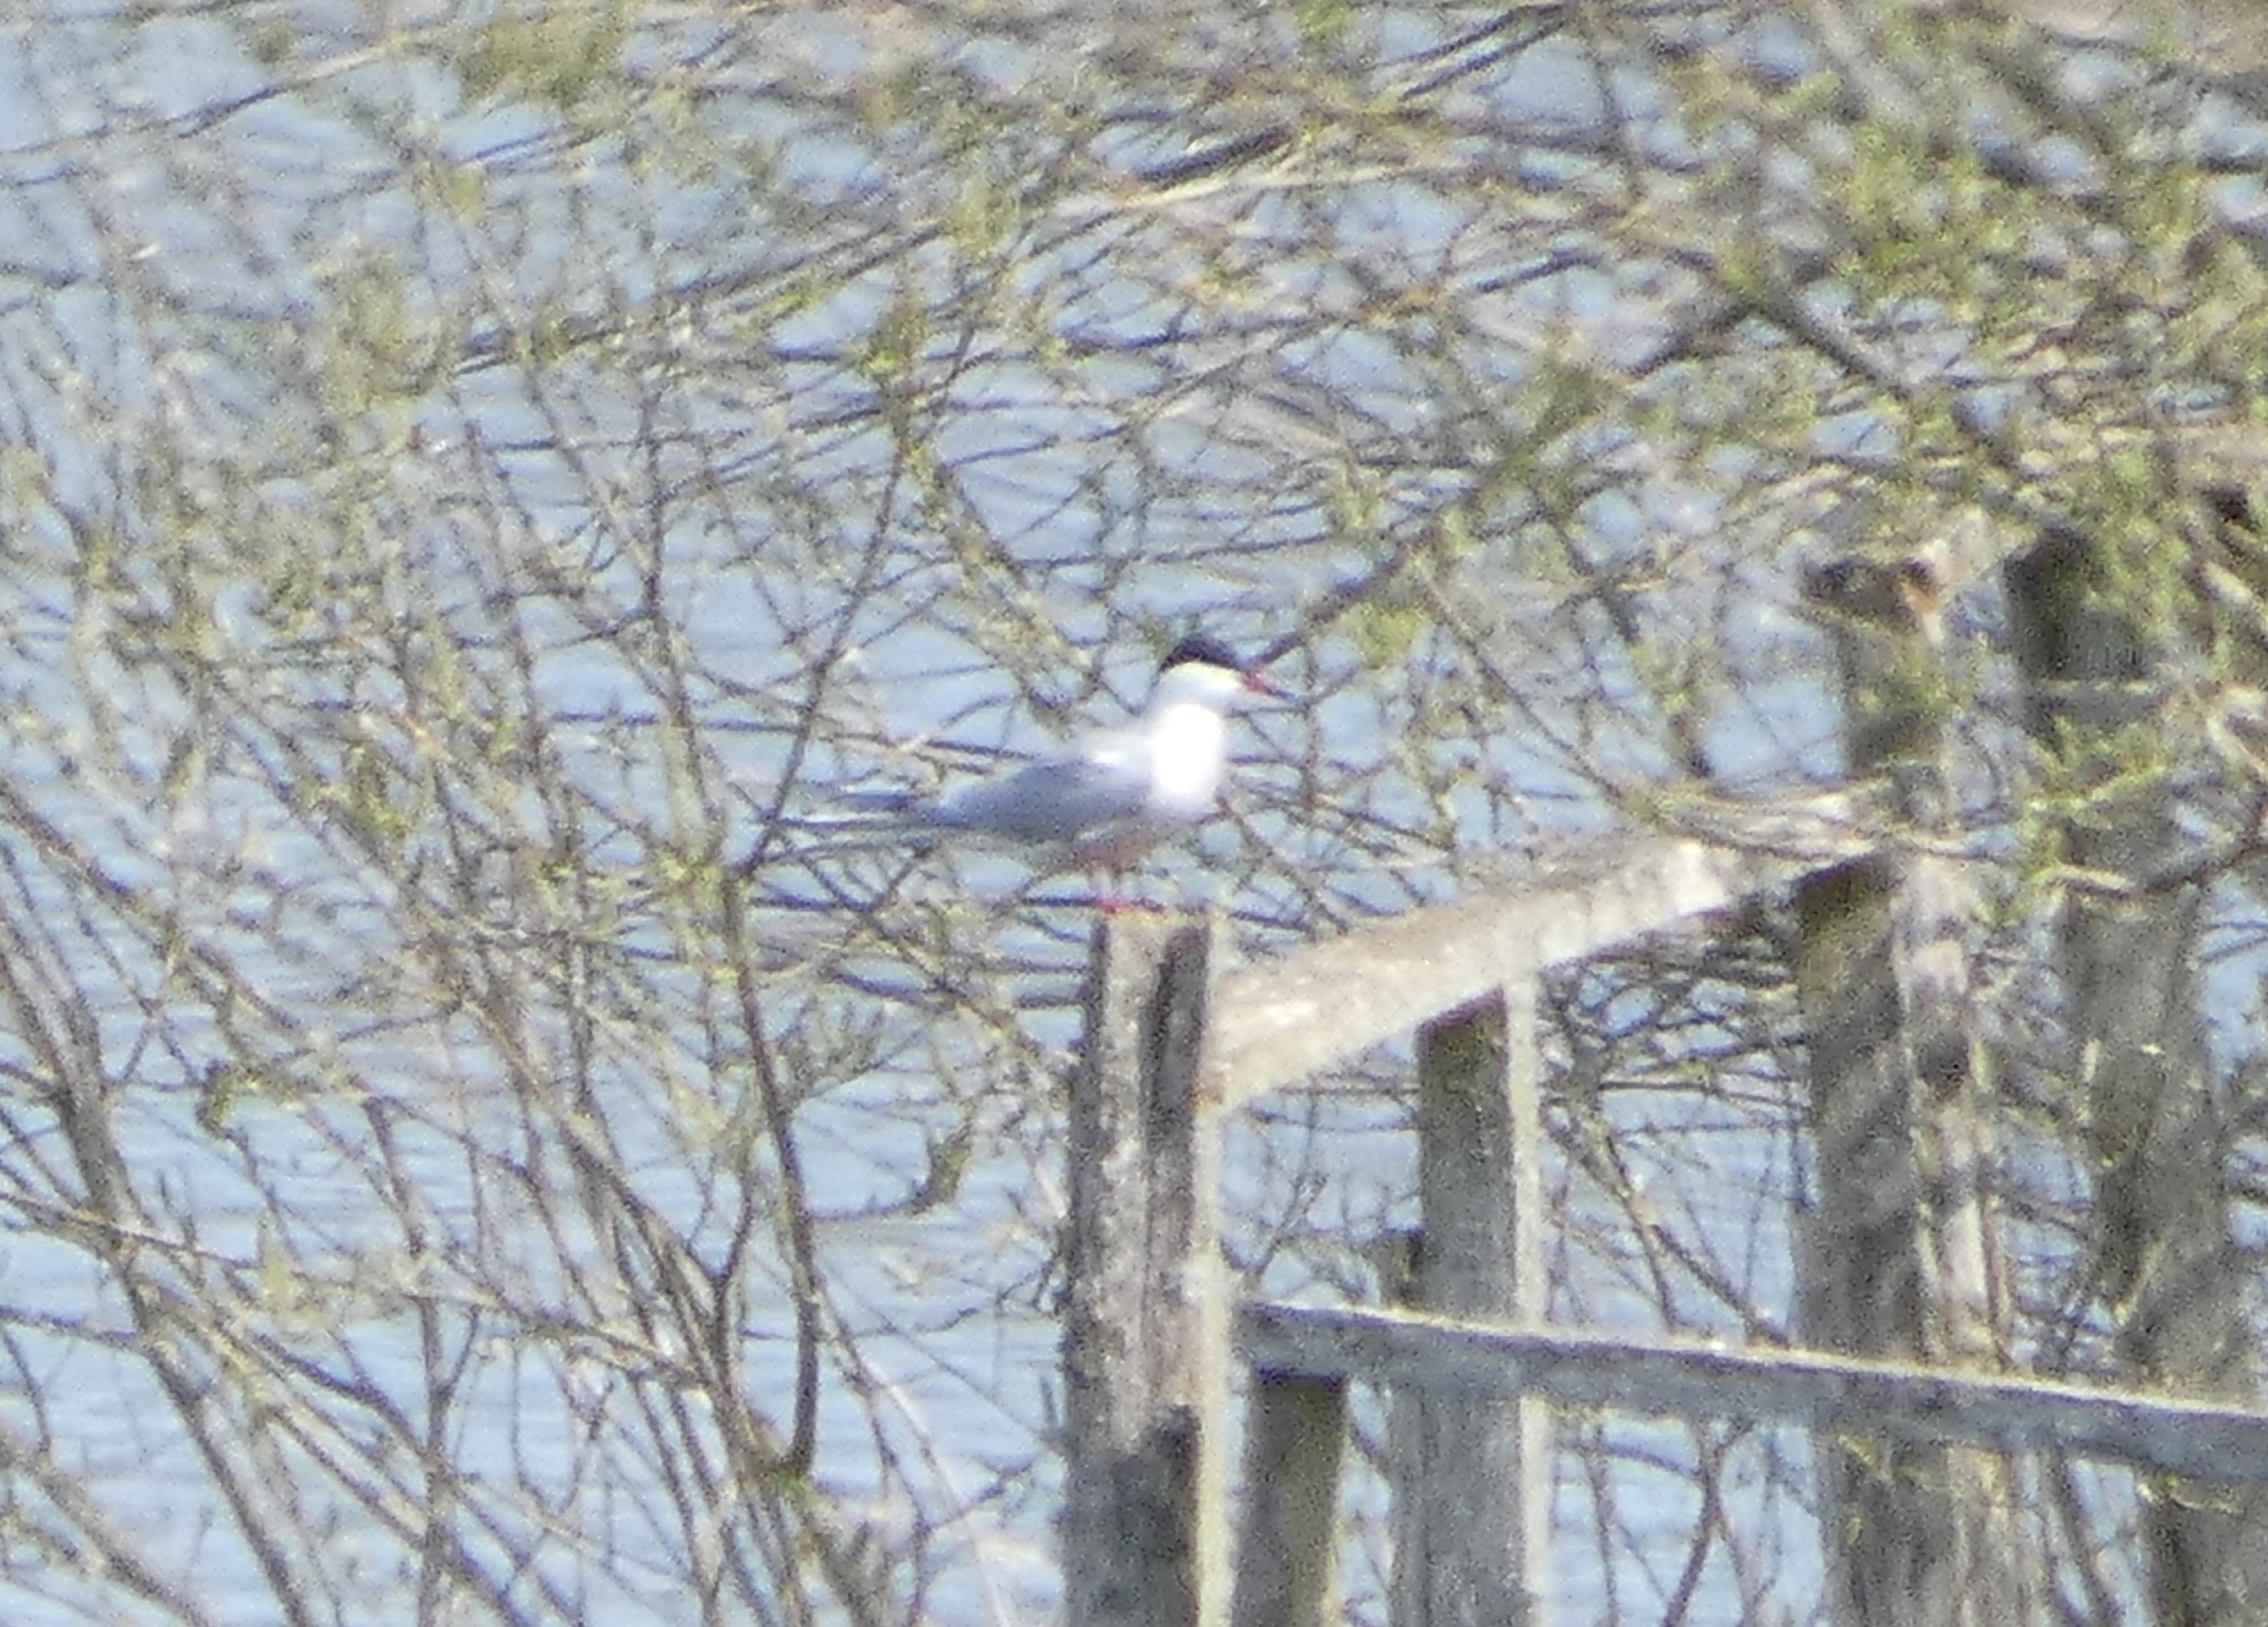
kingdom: Animalia
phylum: Chordata
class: Aves
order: Charadriiformes
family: Laridae
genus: Sterna
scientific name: Sterna hirundo
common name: Fjordterne
